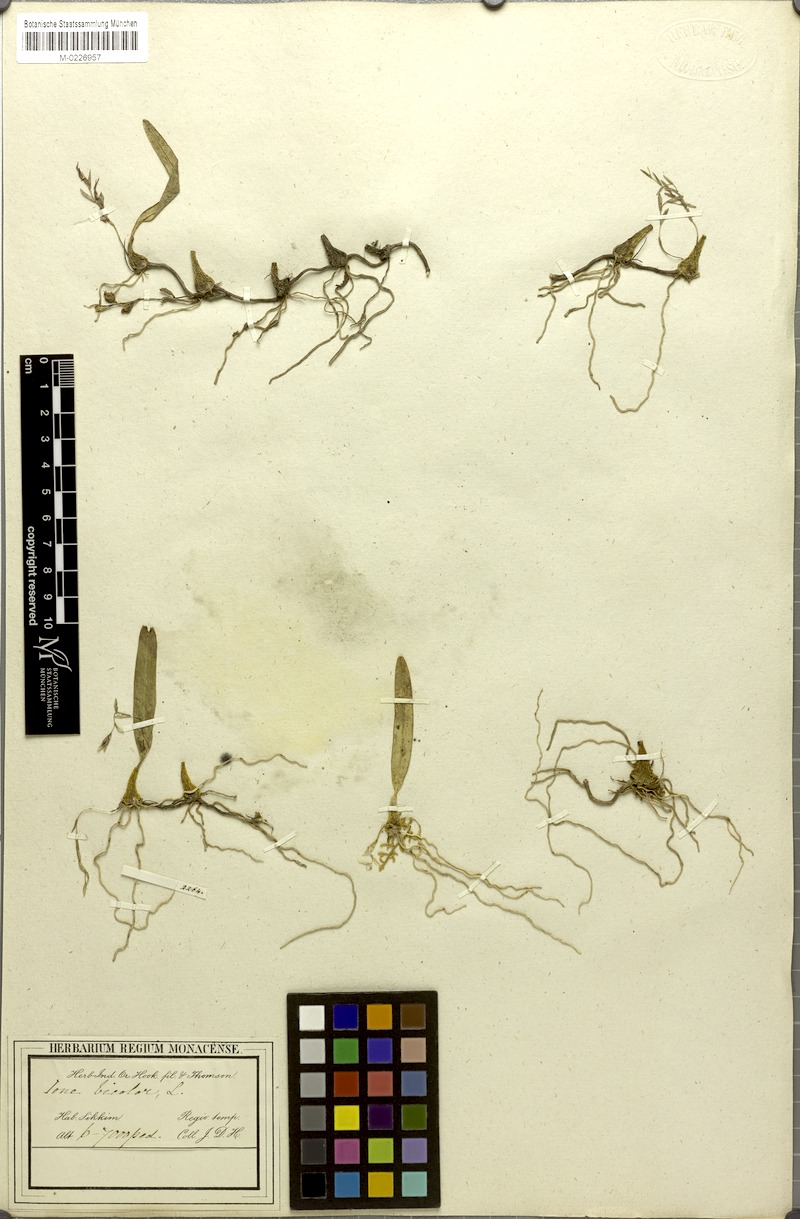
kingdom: Plantae
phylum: Tracheophyta
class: Liliopsida
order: Asparagales
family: Orchidaceae
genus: Bulbophyllum
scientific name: Bulbophyllum roseopictum
